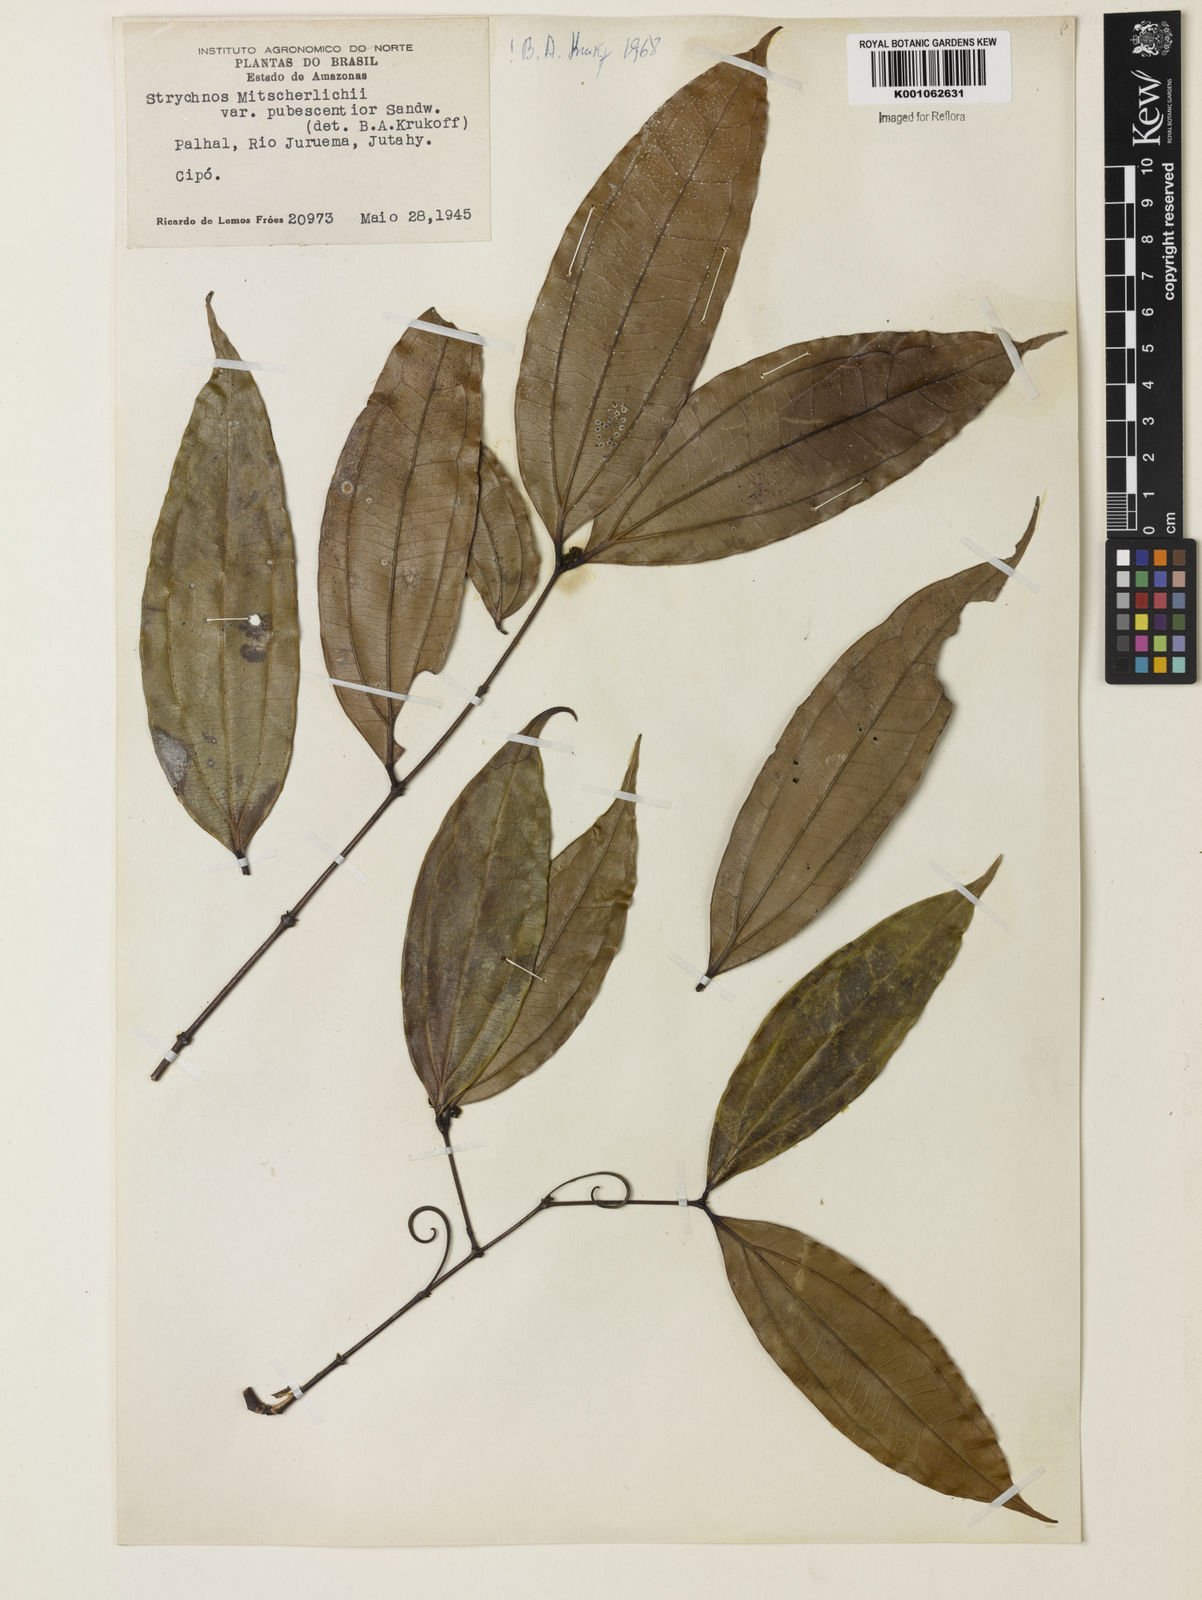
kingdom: Plantae
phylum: Tracheophyta
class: Magnoliopsida
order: Gentianales
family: Loganiaceae
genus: Strychnos
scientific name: Strychnos mitscherlichii
